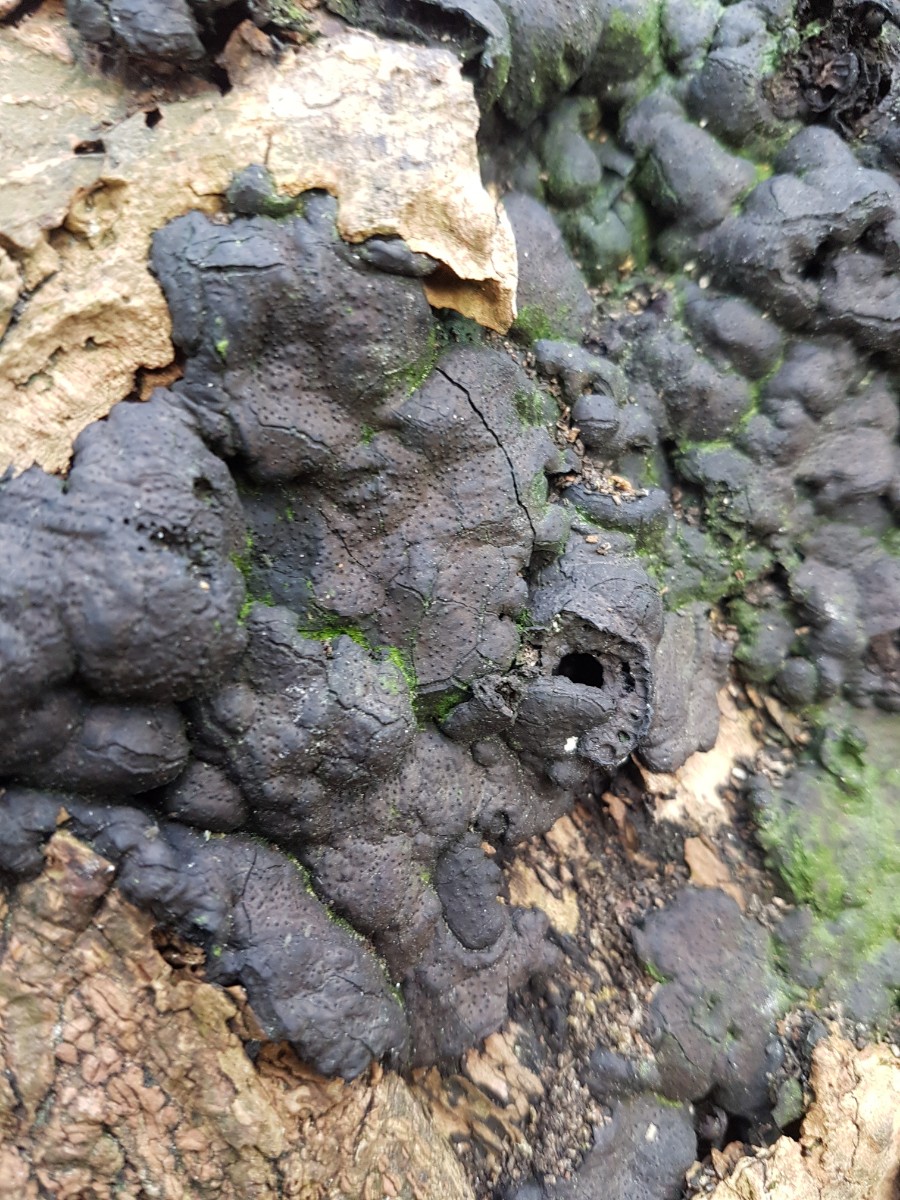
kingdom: Fungi
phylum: Ascomycota
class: Sordariomycetes
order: Xylariales
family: Xylariaceae
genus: Kretzschmaria
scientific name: Kretzschmaria deusta
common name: stor kulsvamp
